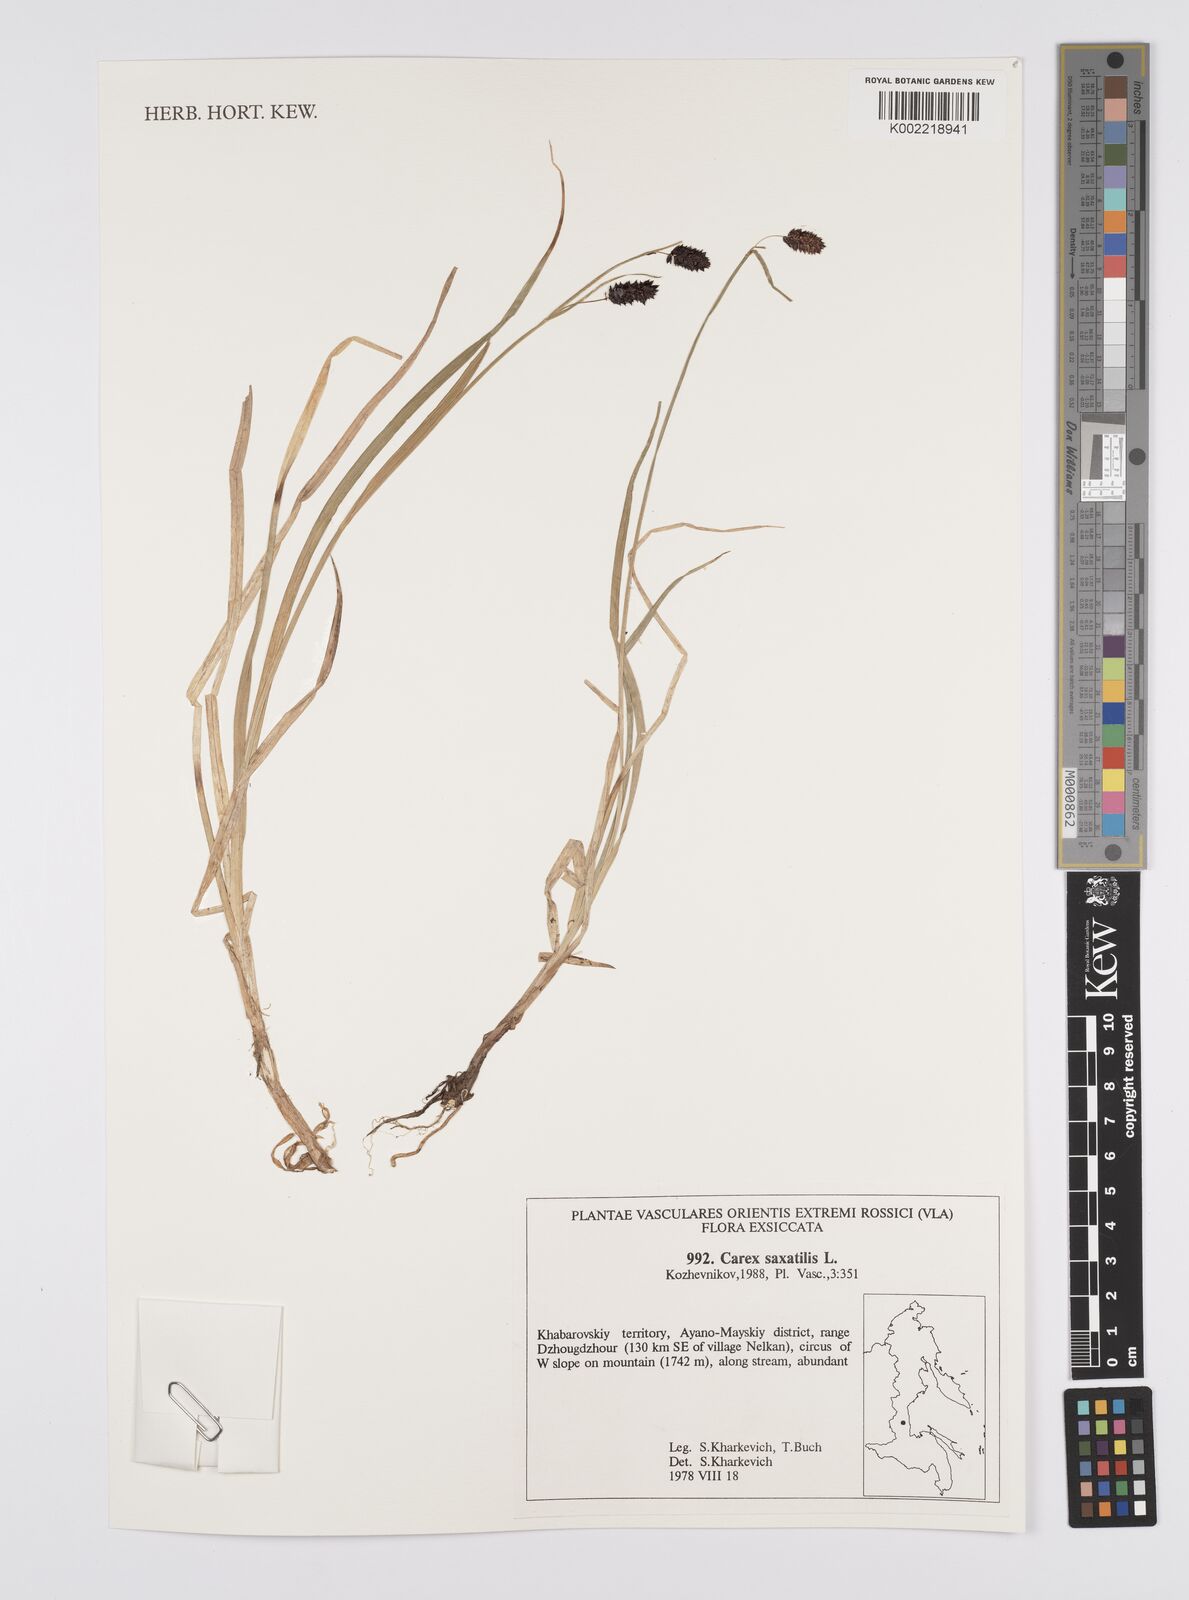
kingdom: Plantae
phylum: Tracheophyta
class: Liliopsida
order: Poales
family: Cyperaceae
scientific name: Cyperaceae
